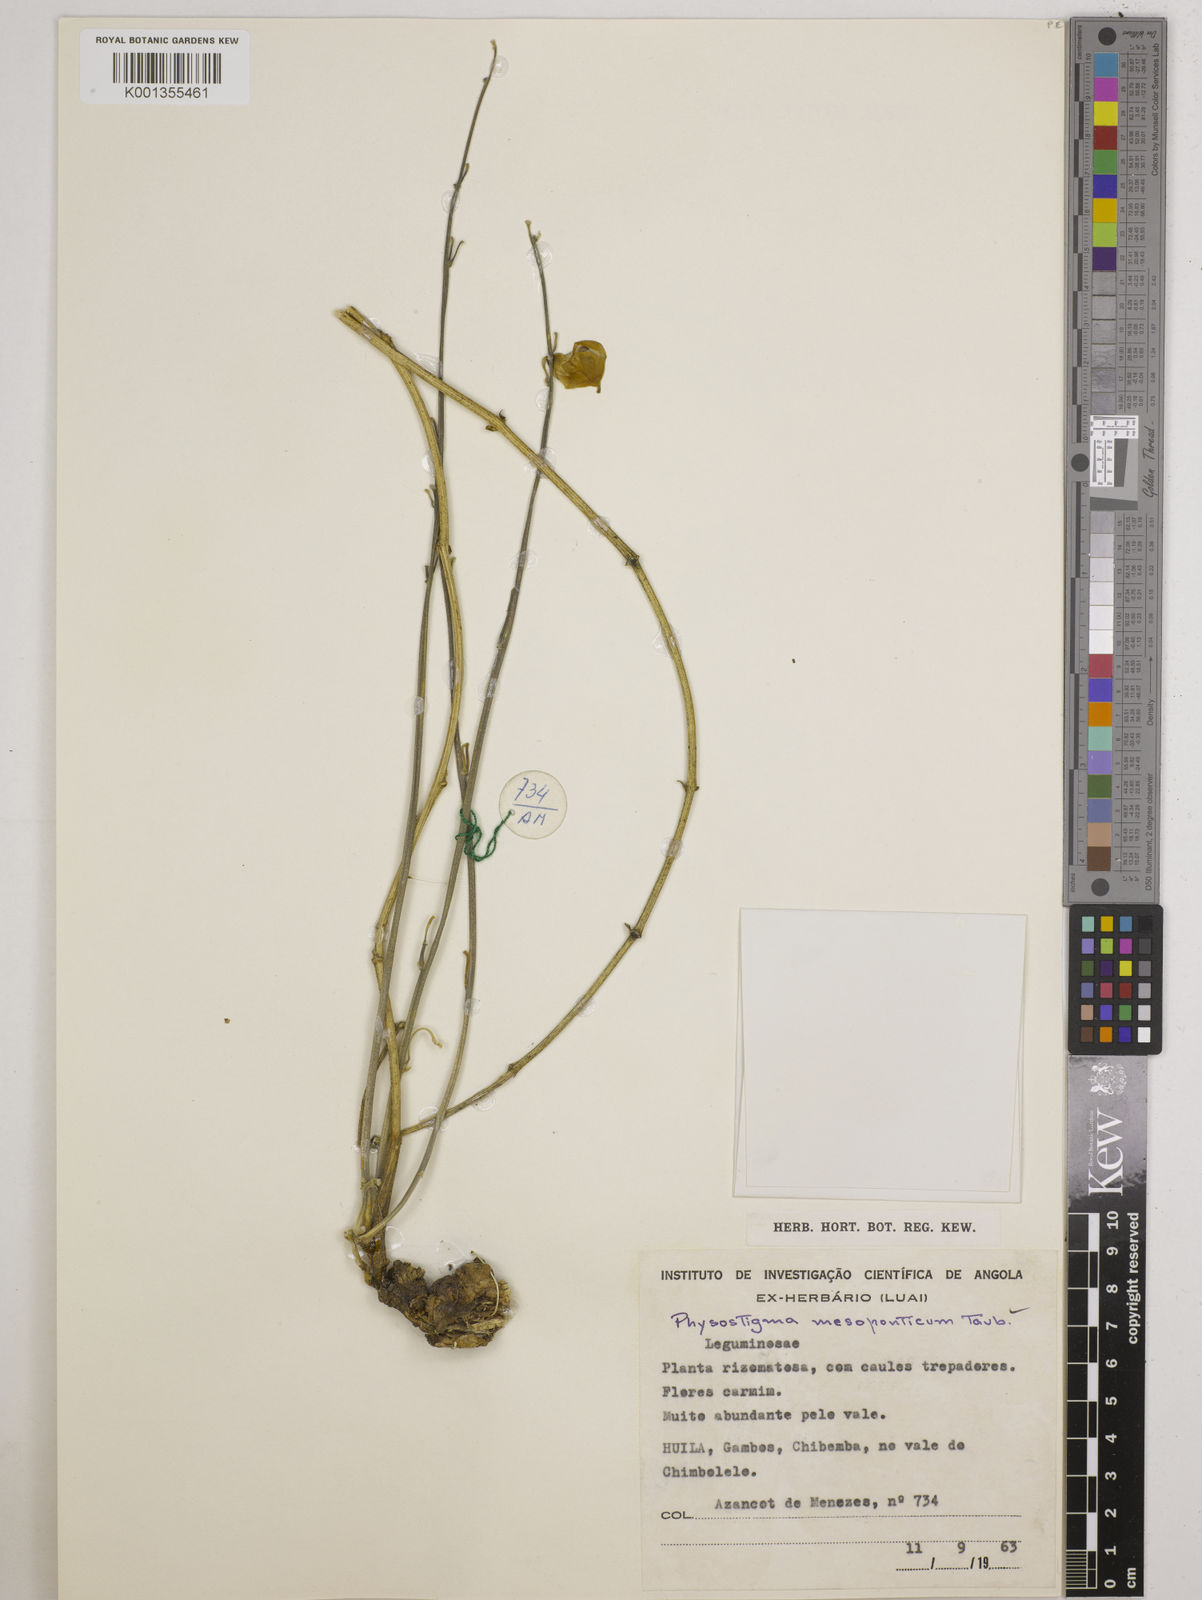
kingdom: Plantae
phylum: Tracheophyta
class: Magnoliopsida
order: Fabales
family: Fabaceae
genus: Physostigma
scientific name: Physostigma mesoponticum
